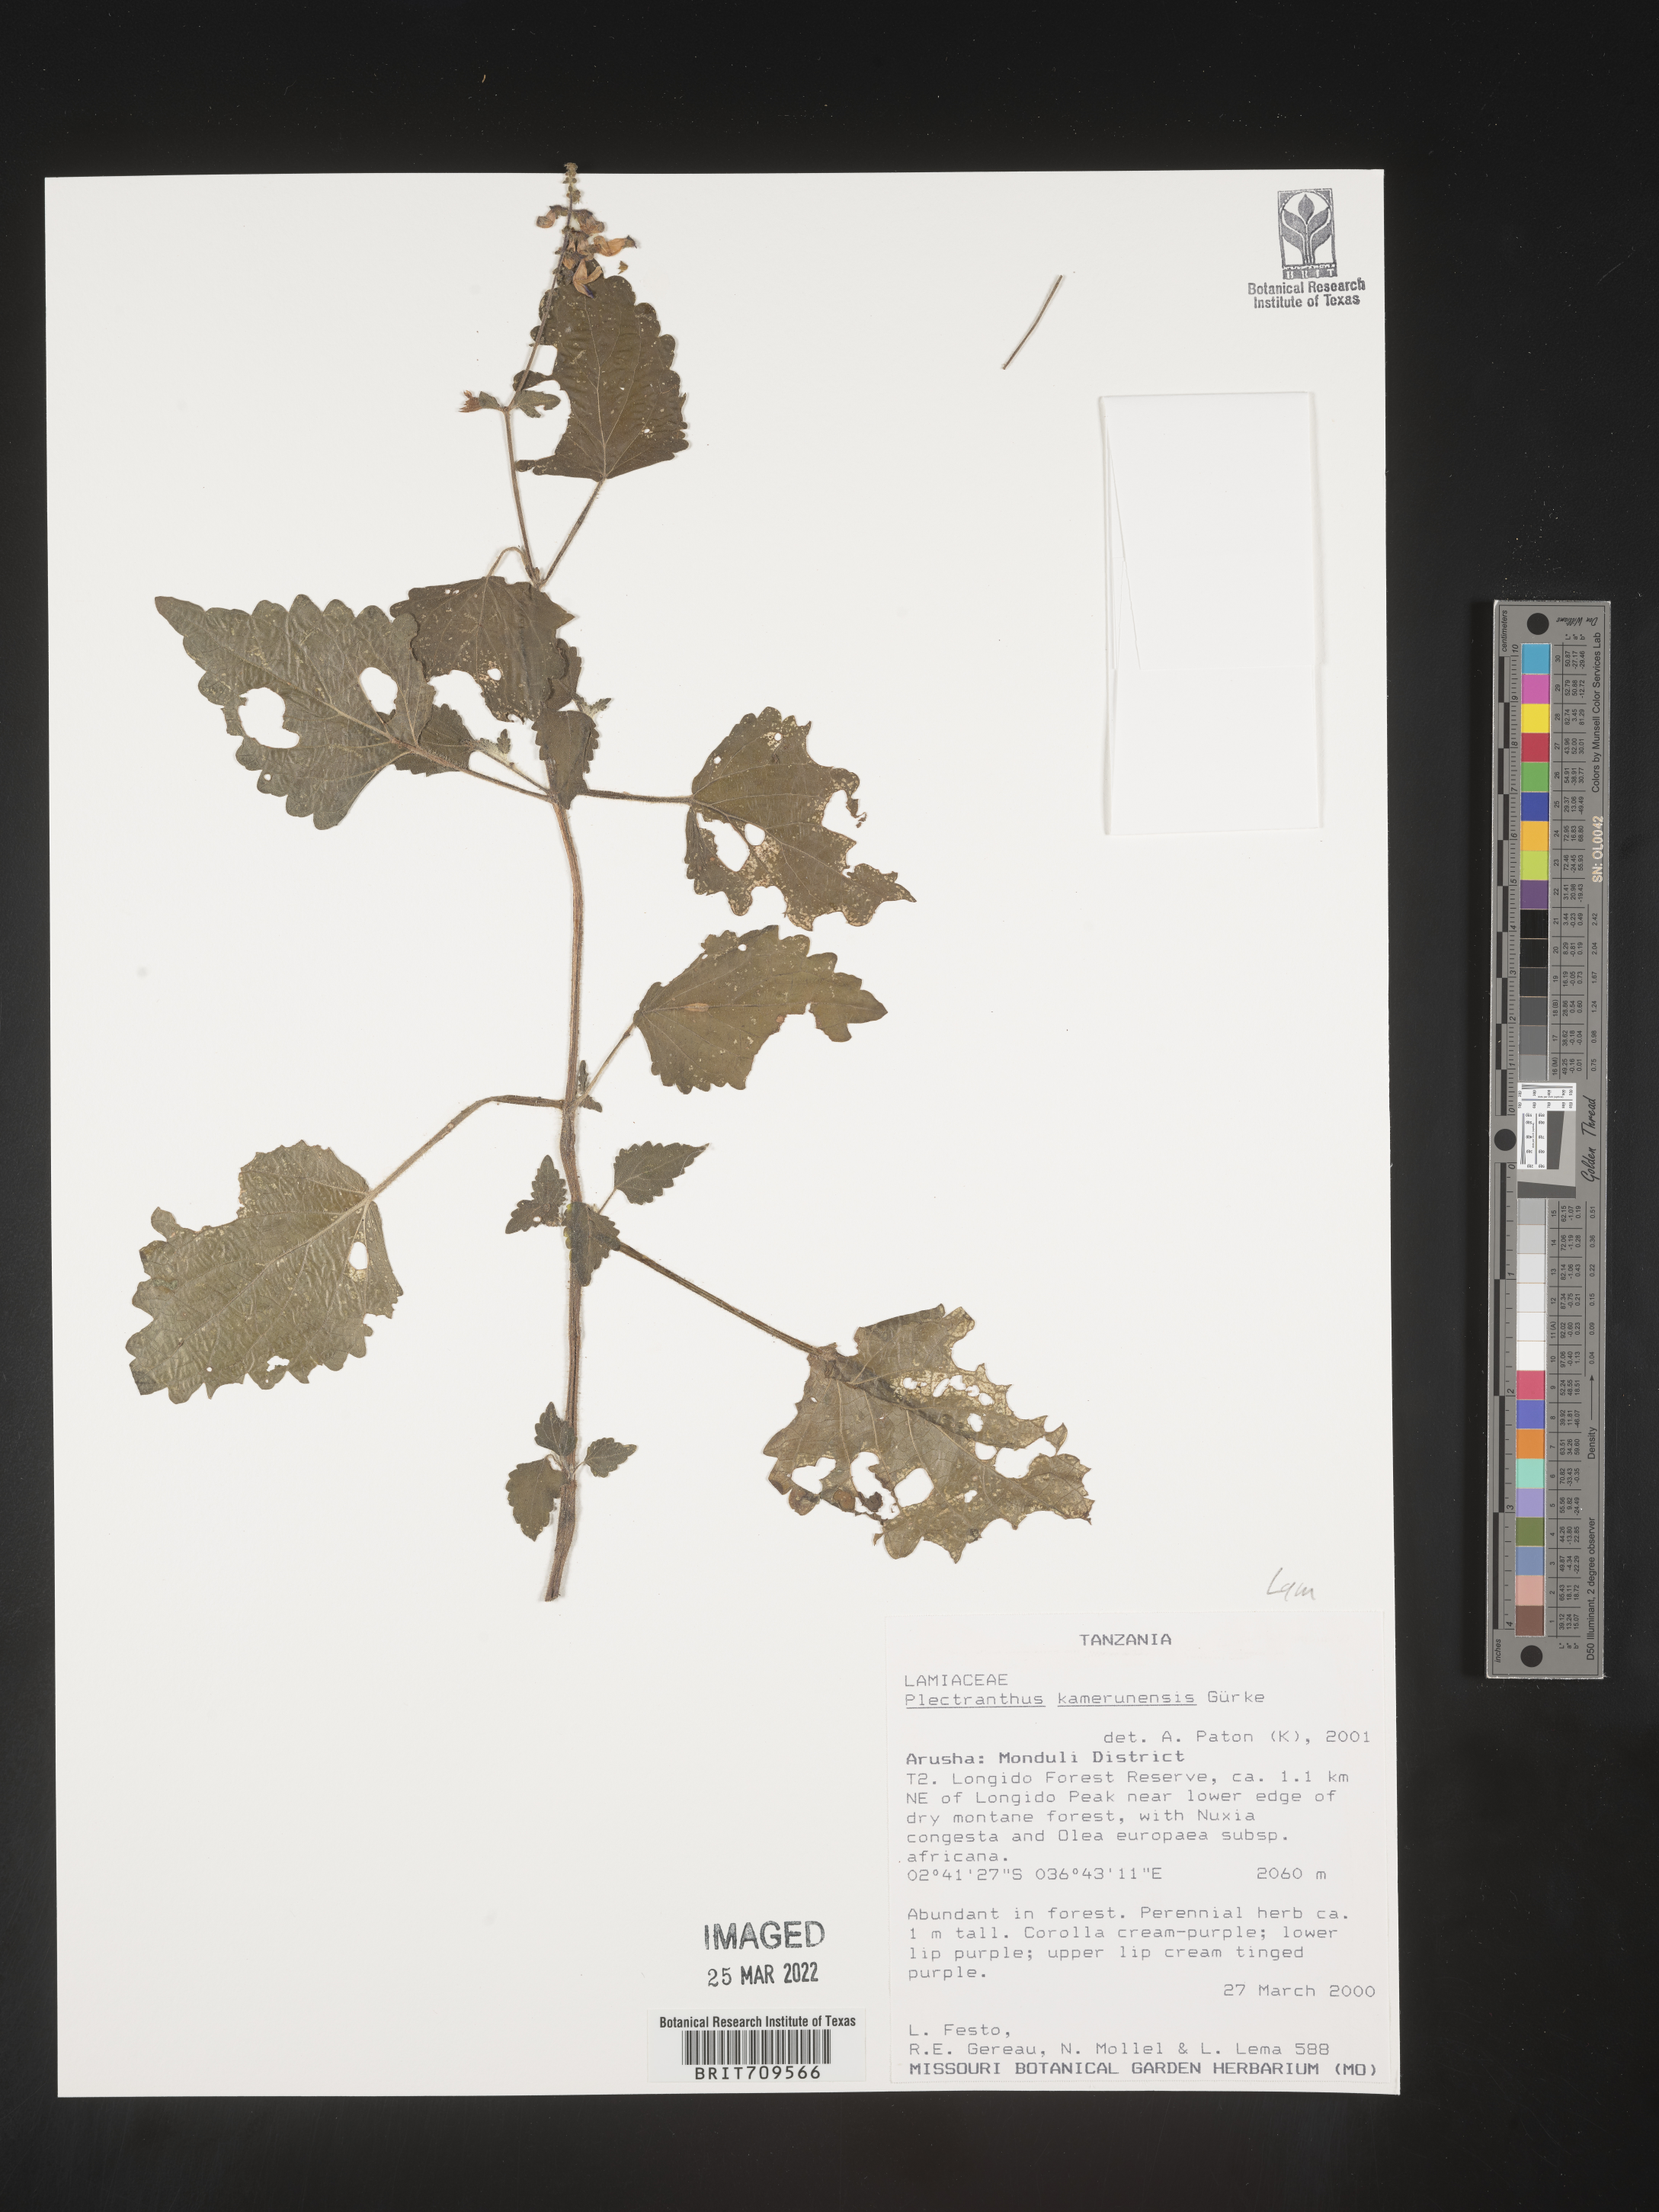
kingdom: Plantae
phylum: Tracheophyta
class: Magnoliopsida
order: Lamiales
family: Lamiaceae
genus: Plectranthus
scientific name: Plectranthus
